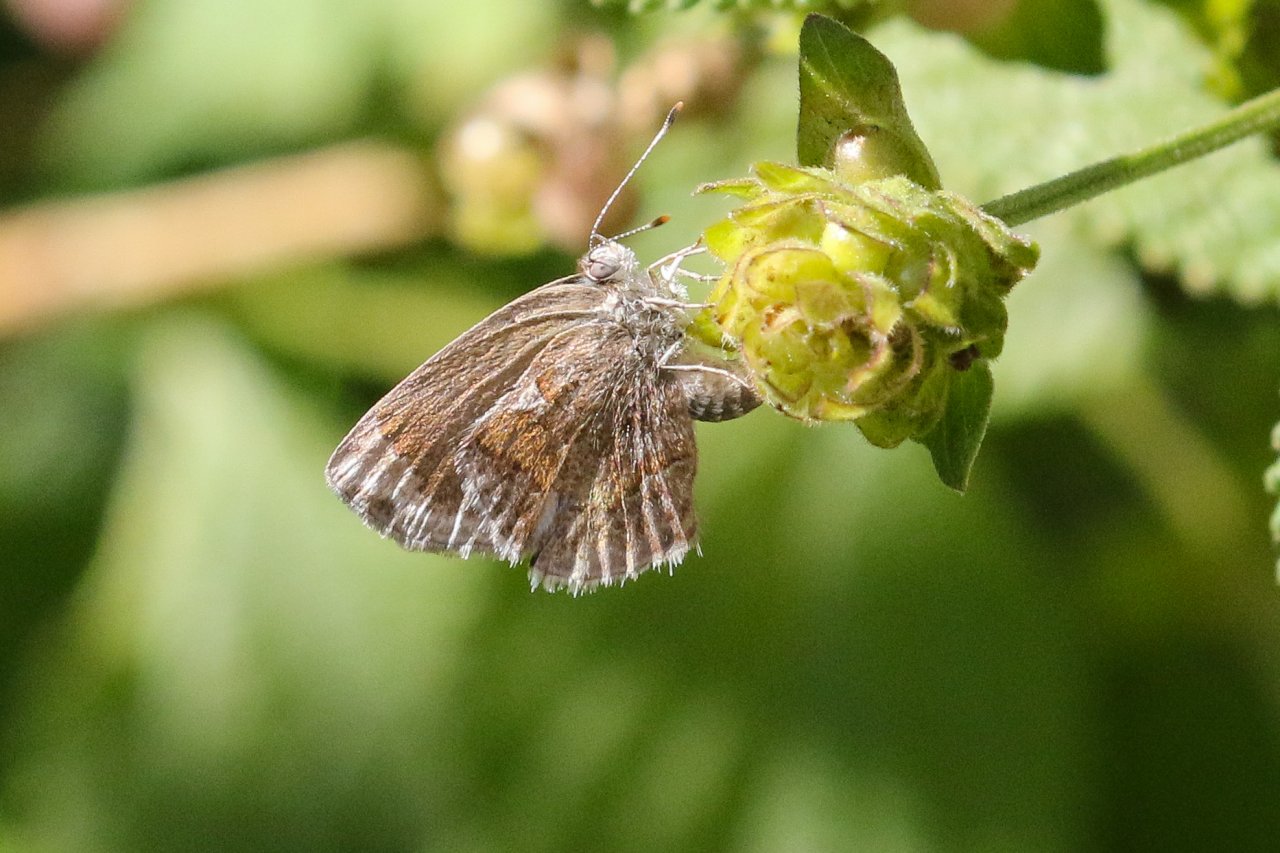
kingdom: Animalia
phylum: Arthropoda
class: Insecta
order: Lepidoptera
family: Lycaenidae
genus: Strymon
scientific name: Strymon bazochii
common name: Lantana Scrub-Hairstreak
